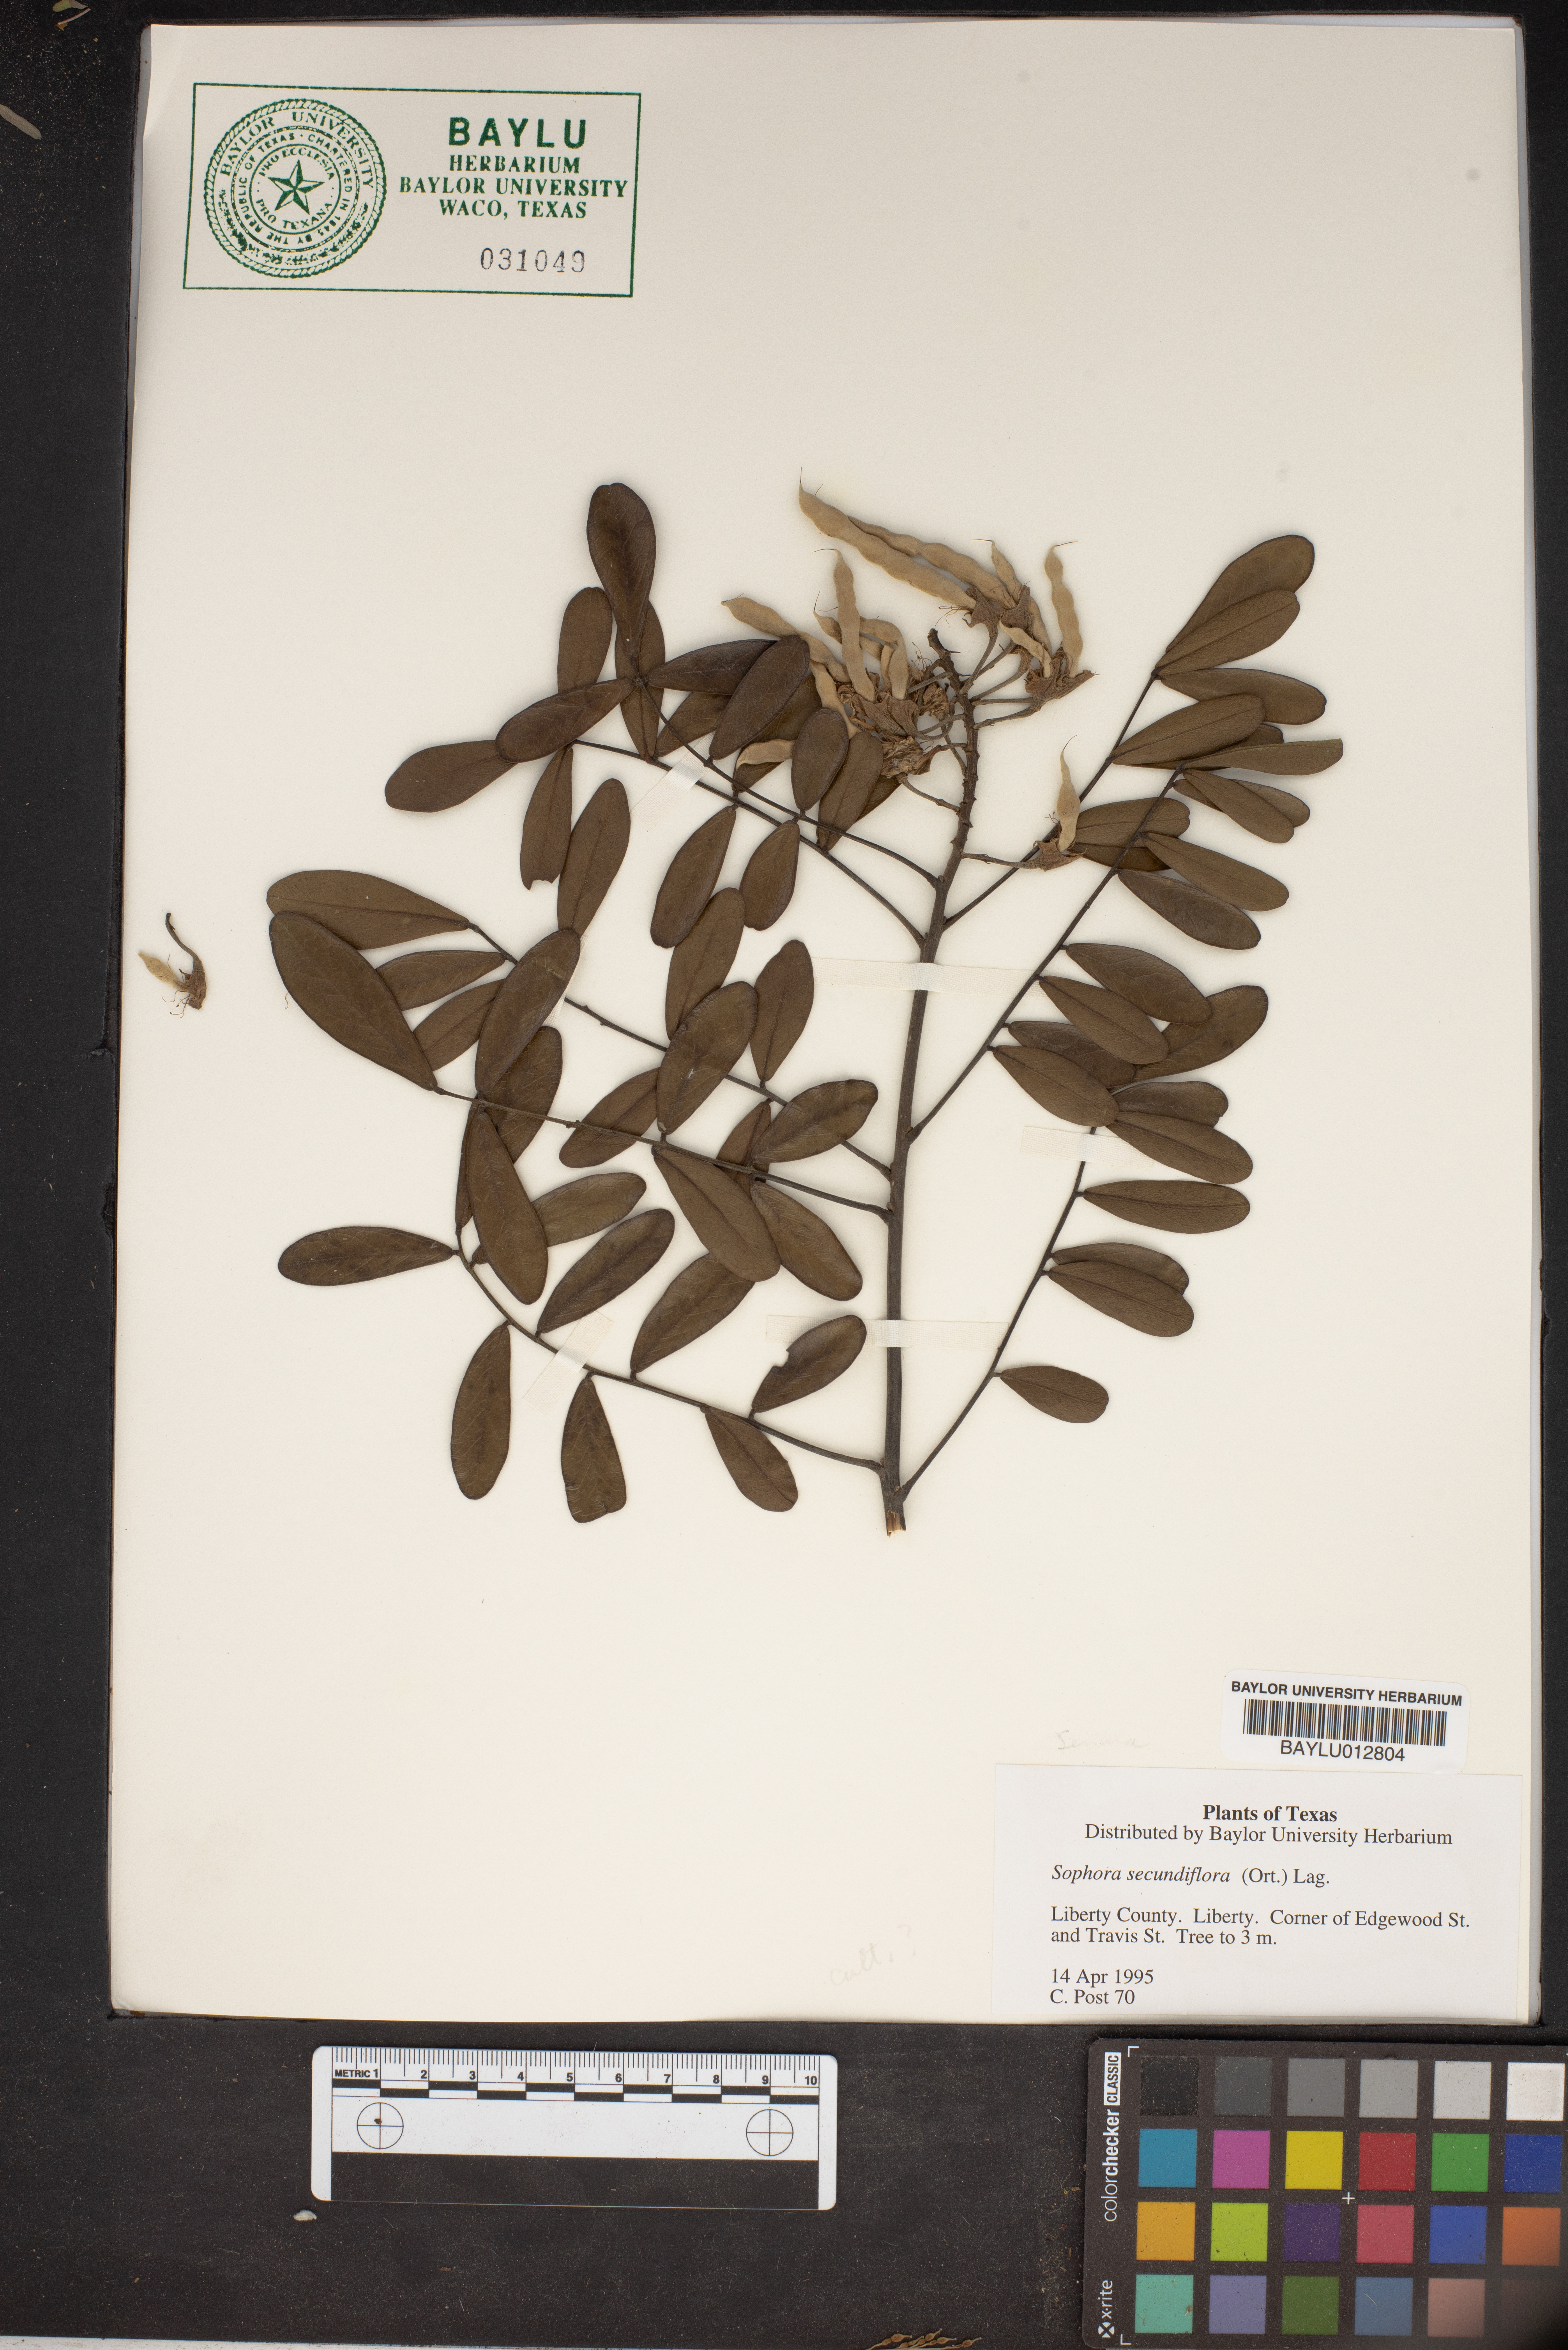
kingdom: Plantae
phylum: Tracheophyta
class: Magnoliopsida
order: Fabales
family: Fabaceae
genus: Dermatophyllum
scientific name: Dermatophyllum secundiflorum
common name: Texas-mountain-laurel
